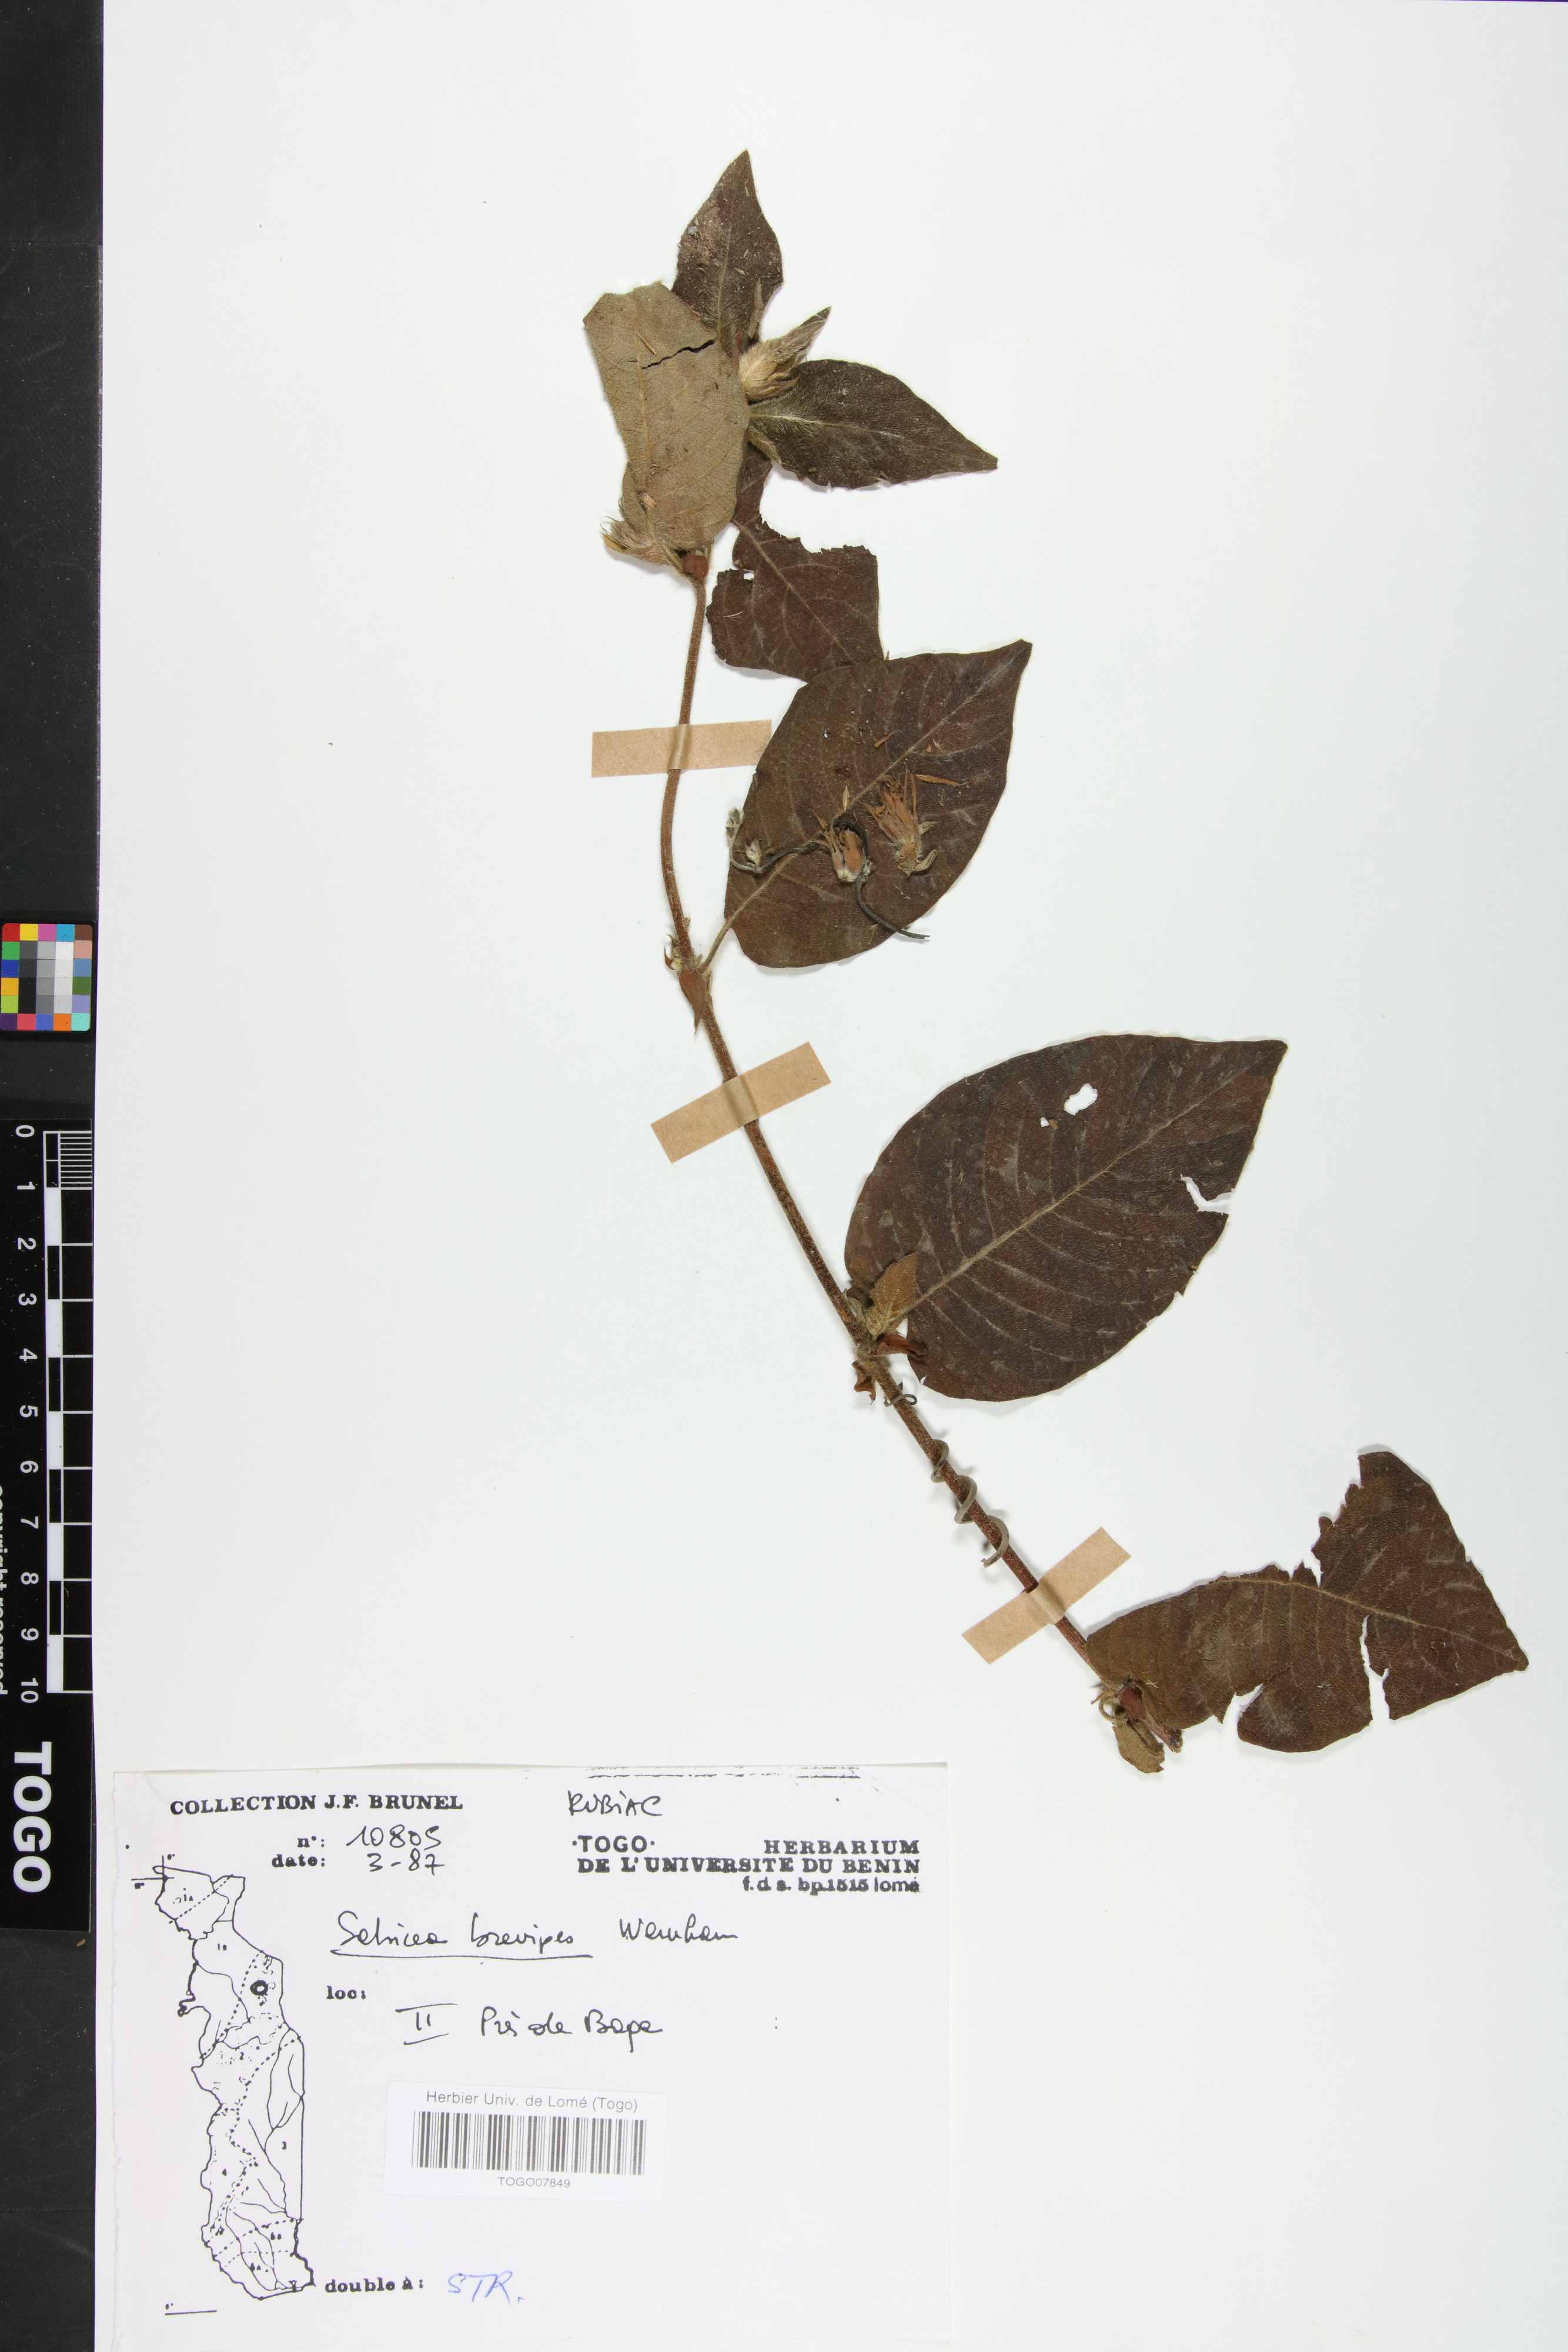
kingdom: Plantae
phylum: Tracheophyta
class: Magnoliopsida
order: Gentianales
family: Rubiaceae
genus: Sabicea
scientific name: Sabicea brevipes
